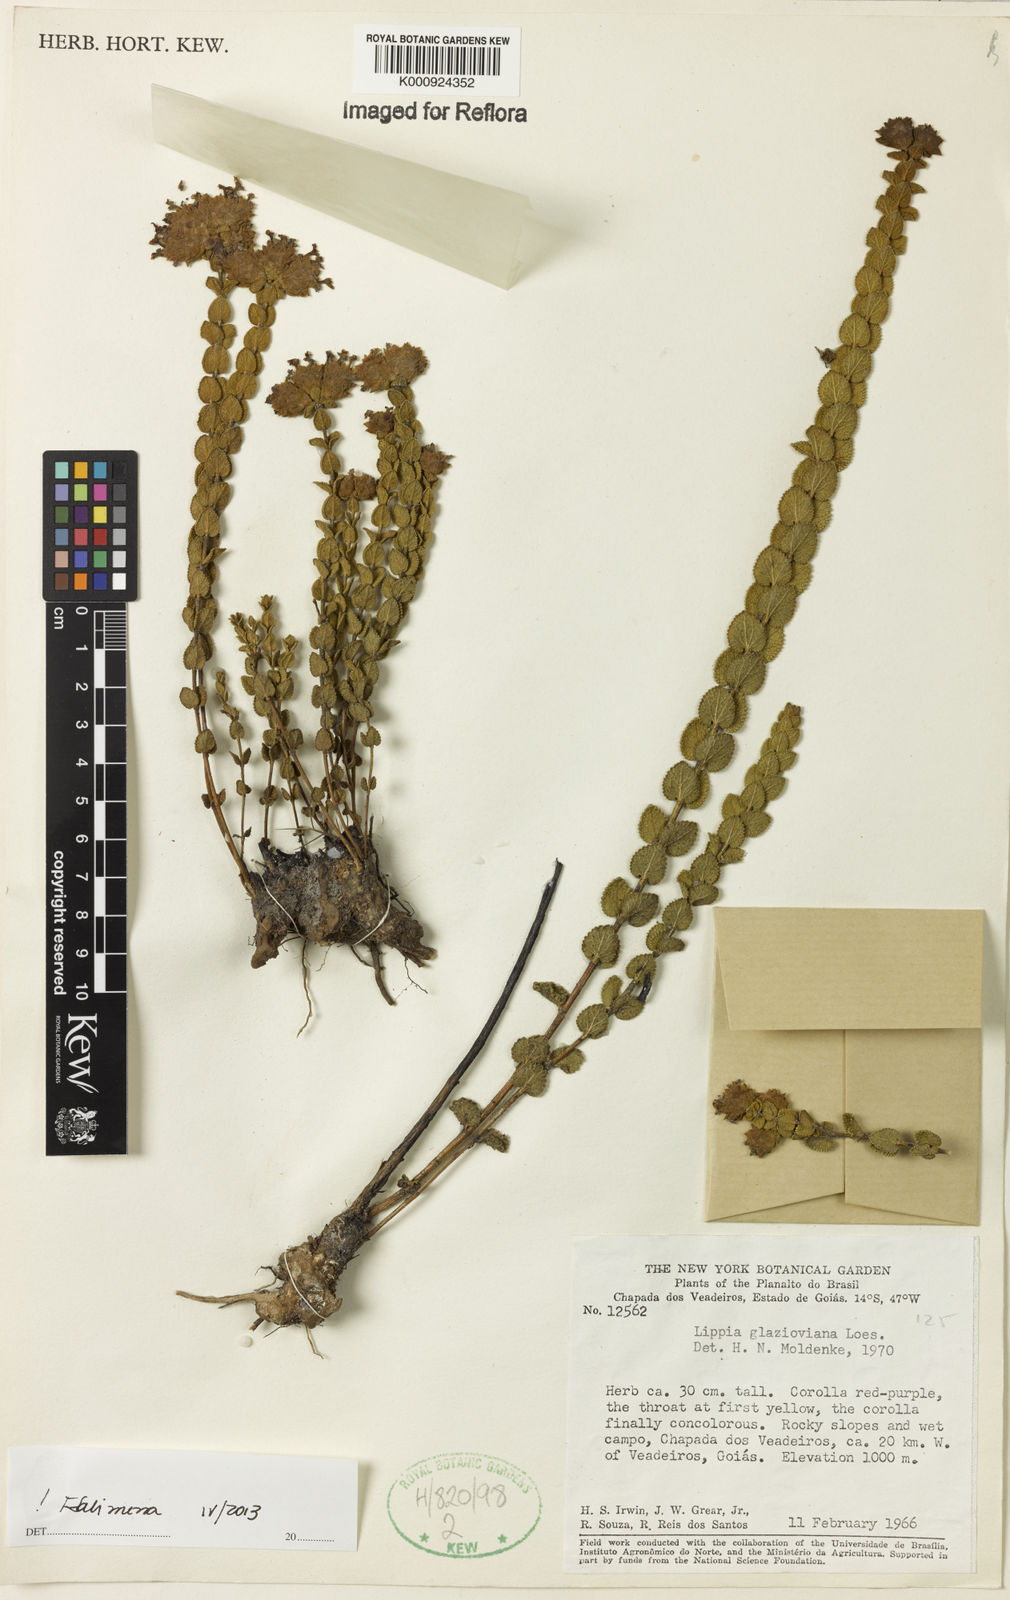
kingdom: Plantae
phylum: Tracheophyta
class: Magnoliopsida
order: Lamiales
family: Verbenaceae
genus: Lippia
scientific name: Lippia glazioviana
